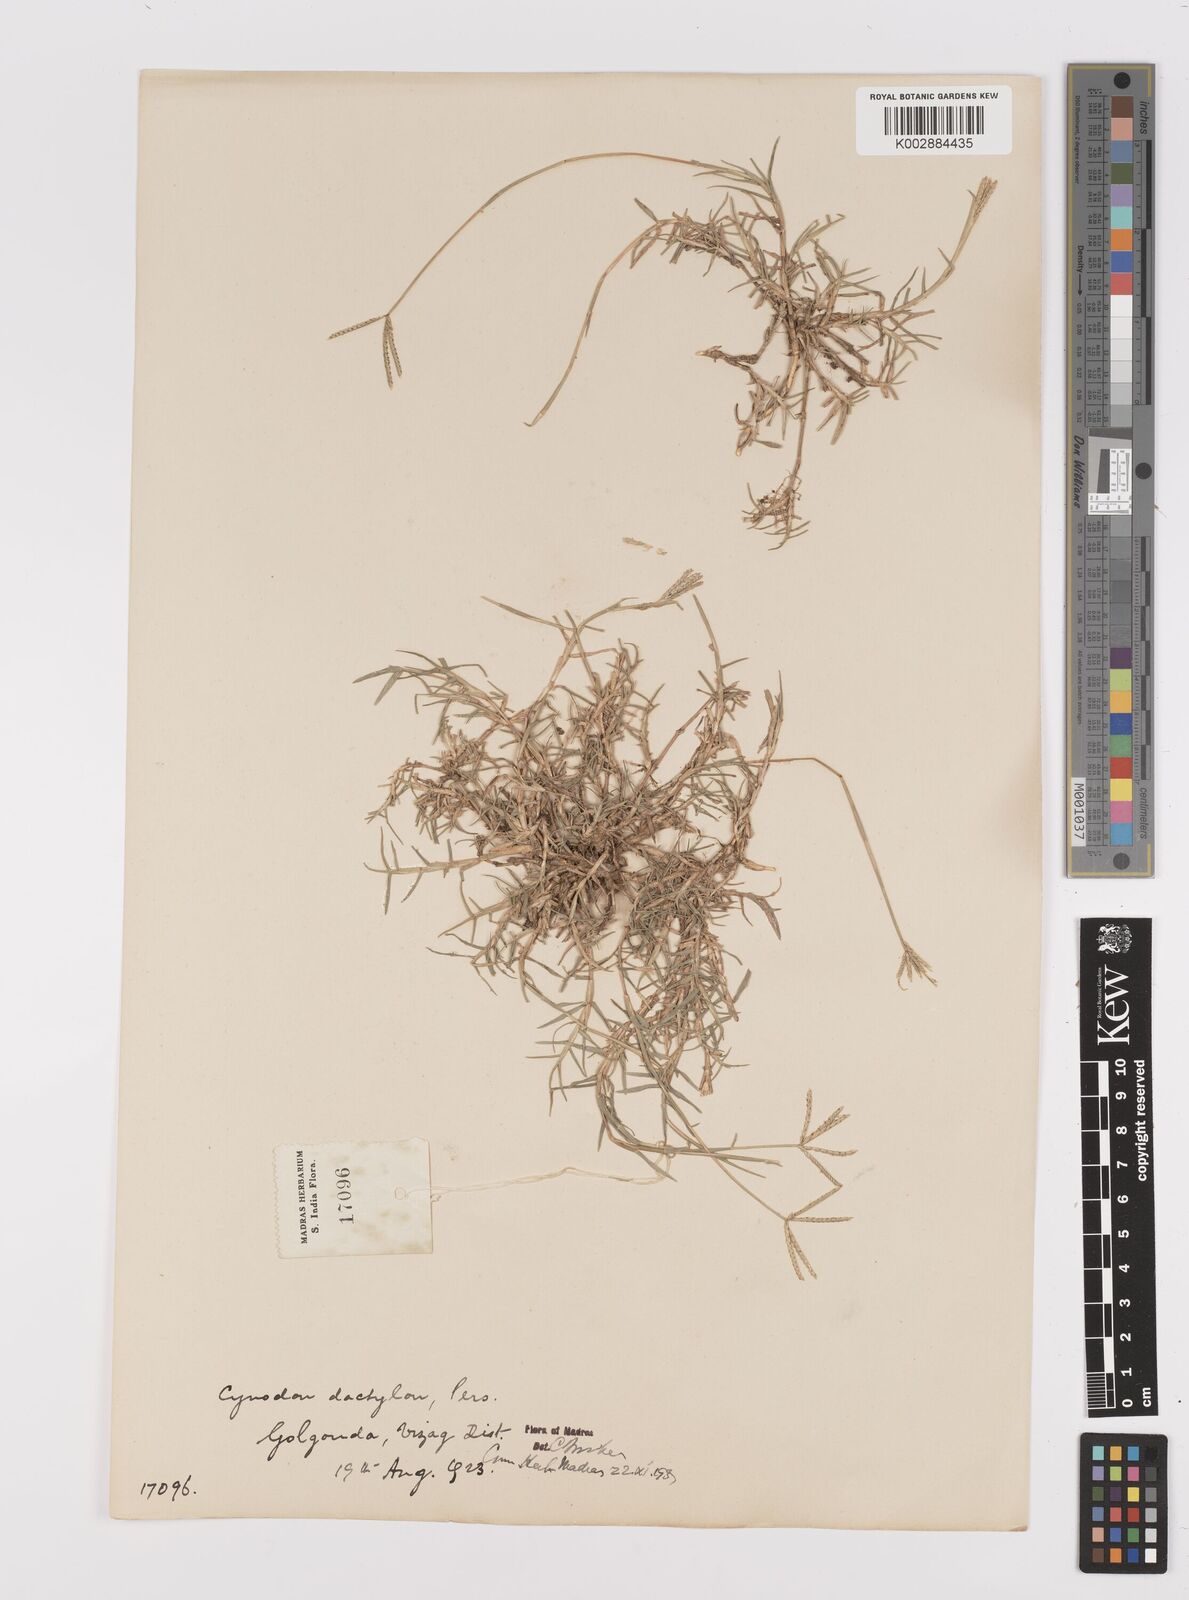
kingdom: Plantae
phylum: Tracheophyta
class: Liliopsida
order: Poales
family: Poaceae
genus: Cynodon
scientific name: Cynodon dactylon
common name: Bermuda grass
